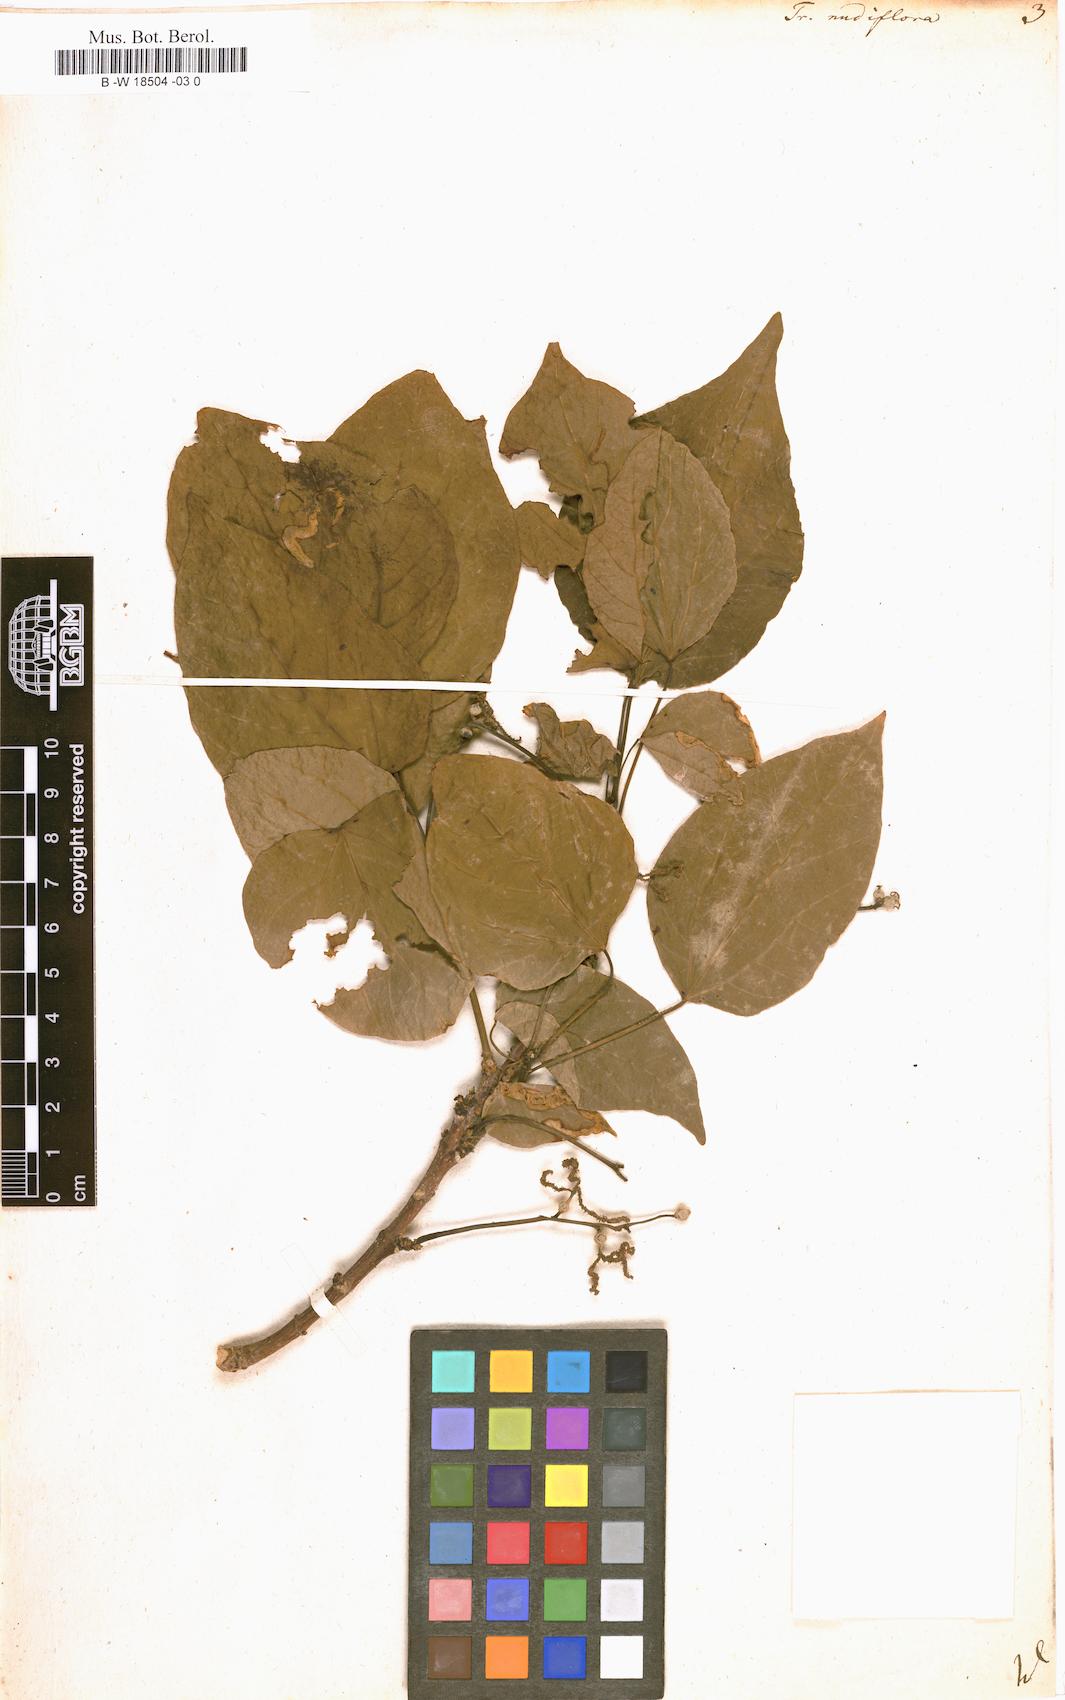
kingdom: Plantae
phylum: Tracheophyta
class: Magnoliopsida
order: Malpighiales
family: Euphorbiaceae
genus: Mallotus
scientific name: Mallotus nudiflorus
